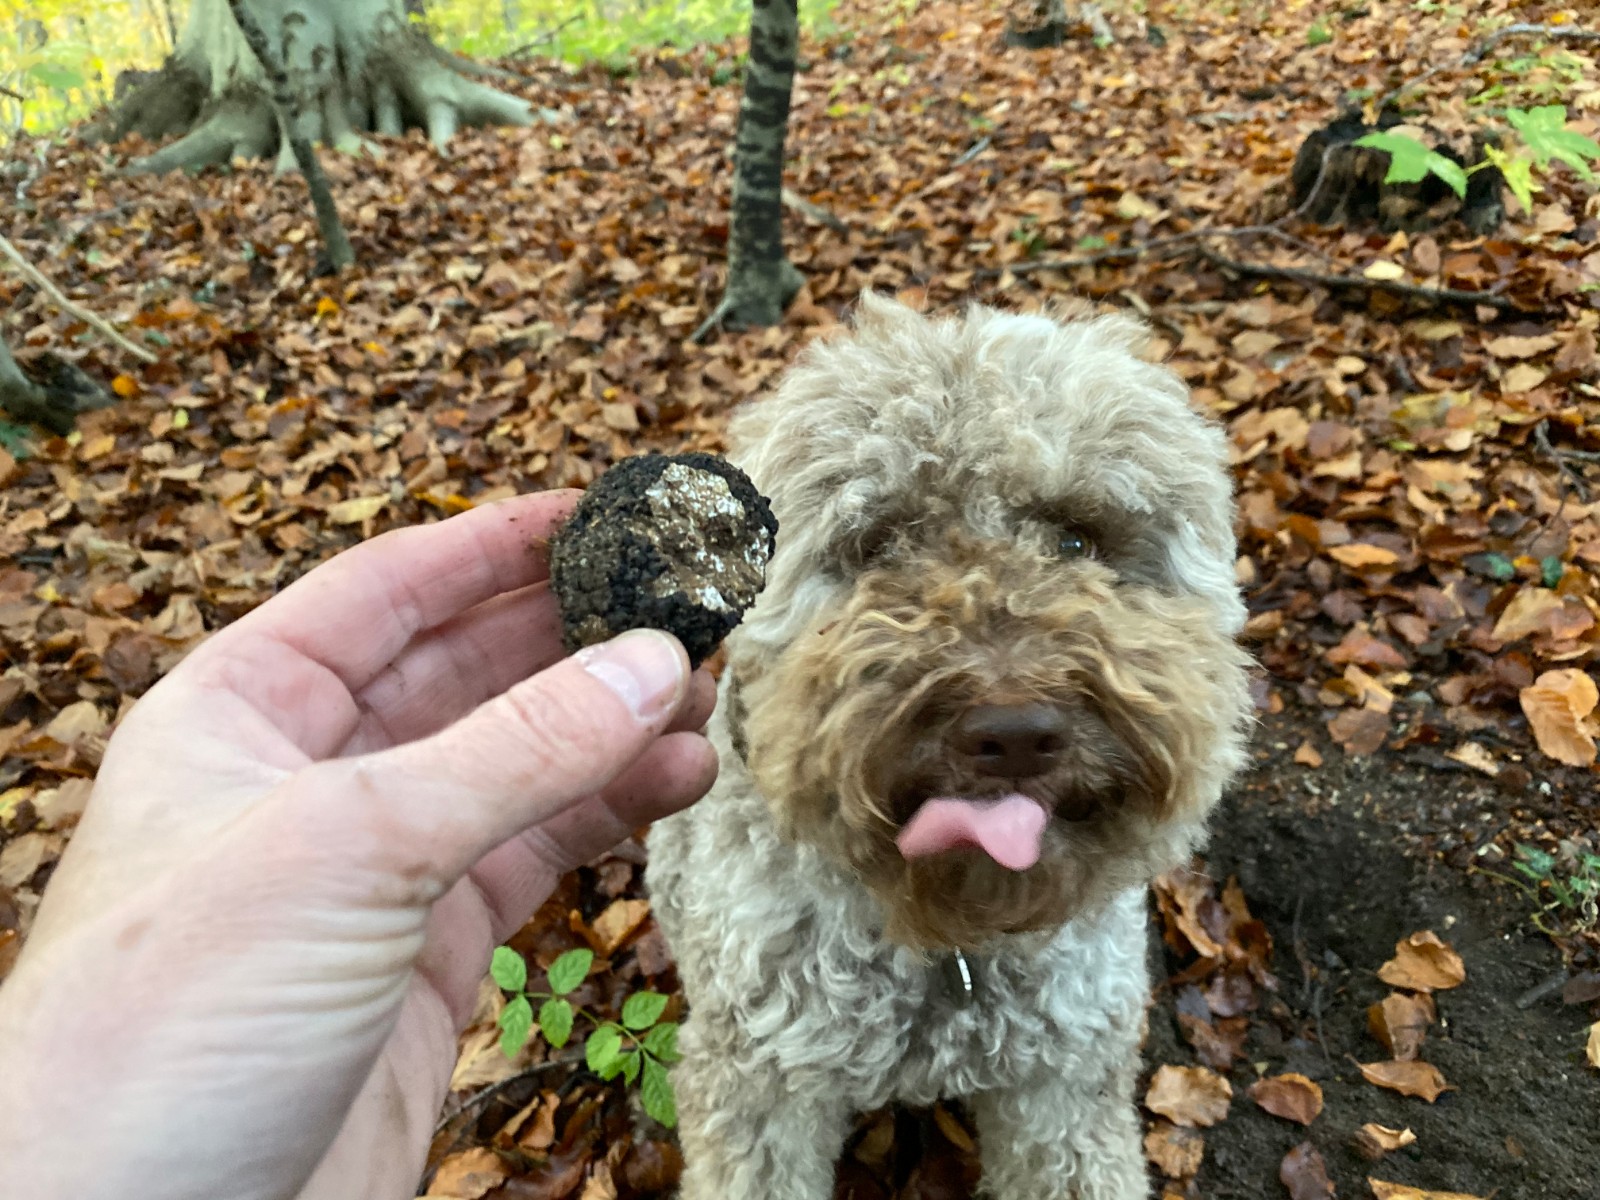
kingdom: Fungi
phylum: Ascomycota
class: Pezizomycetes
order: Pezizales
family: Tuberaceae
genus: Tuber
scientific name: Tuber aestivum
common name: sommer-trøffel
